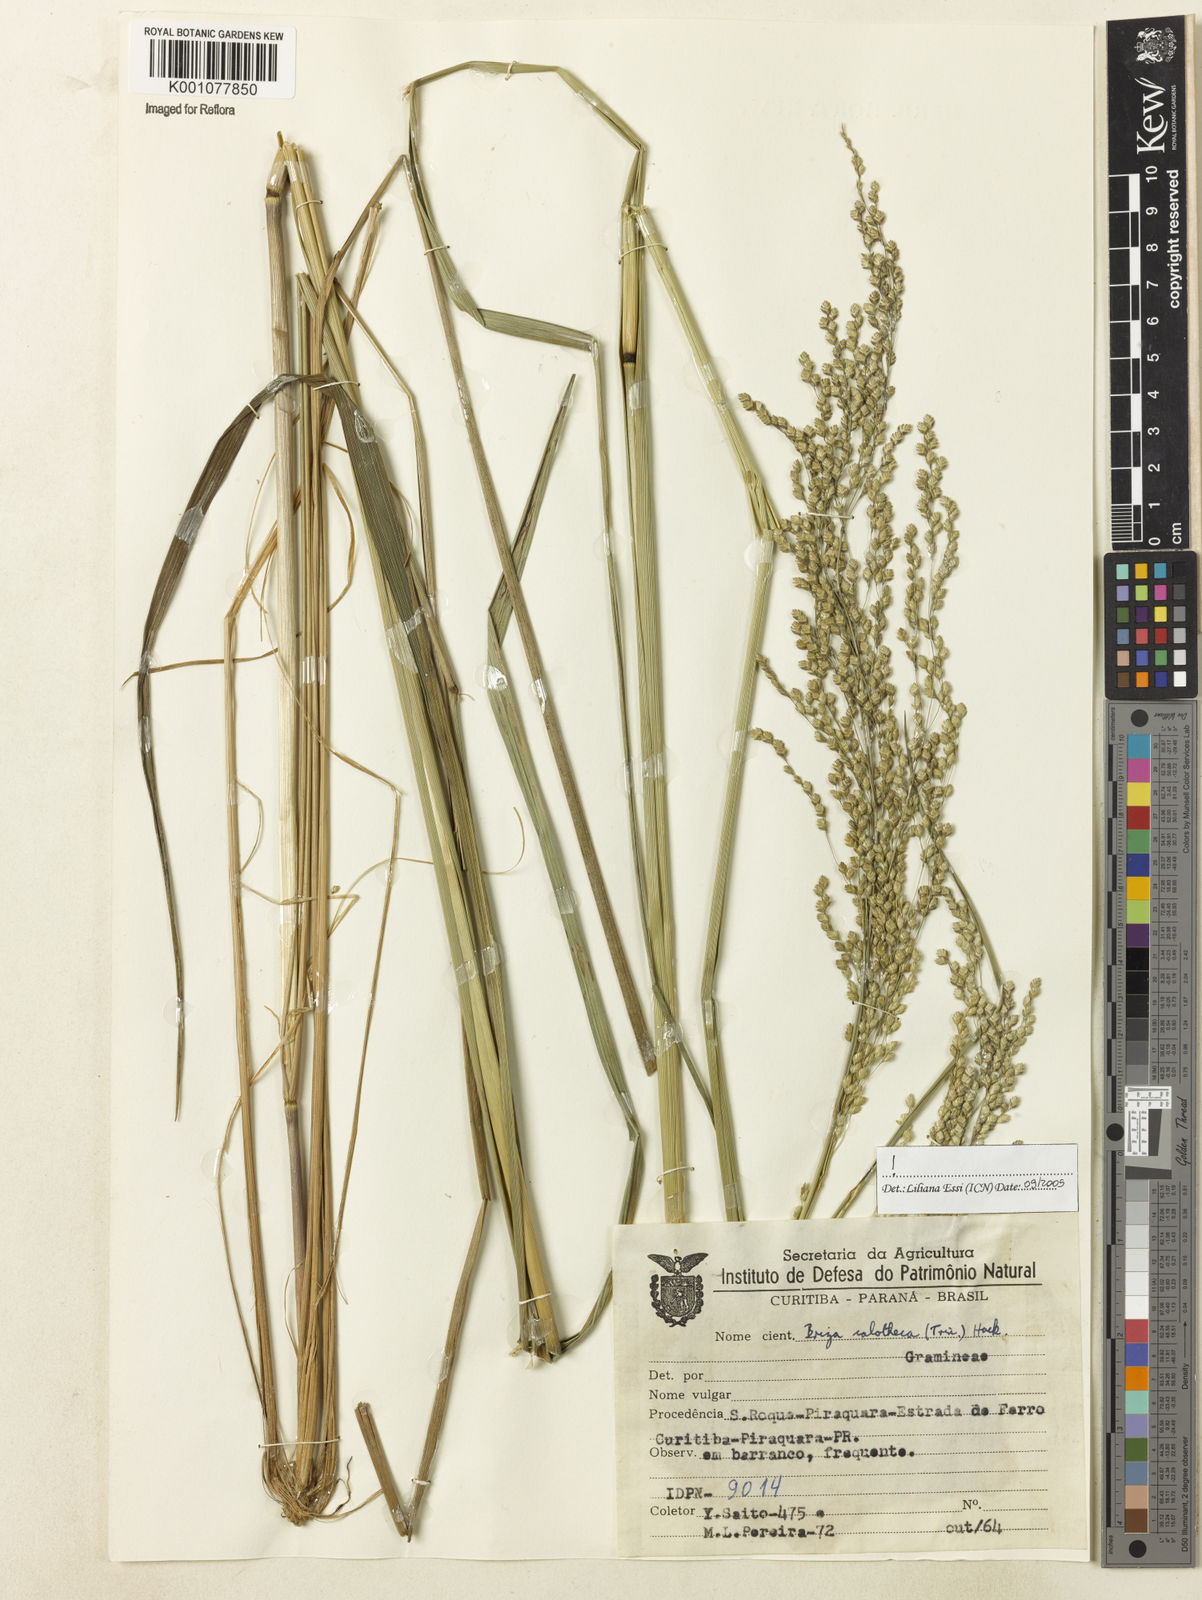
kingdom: Plantae
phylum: Tracheophyta
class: Liliopsida
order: Poales
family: Poaceae
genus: Poidium
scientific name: Poidium calotheca
